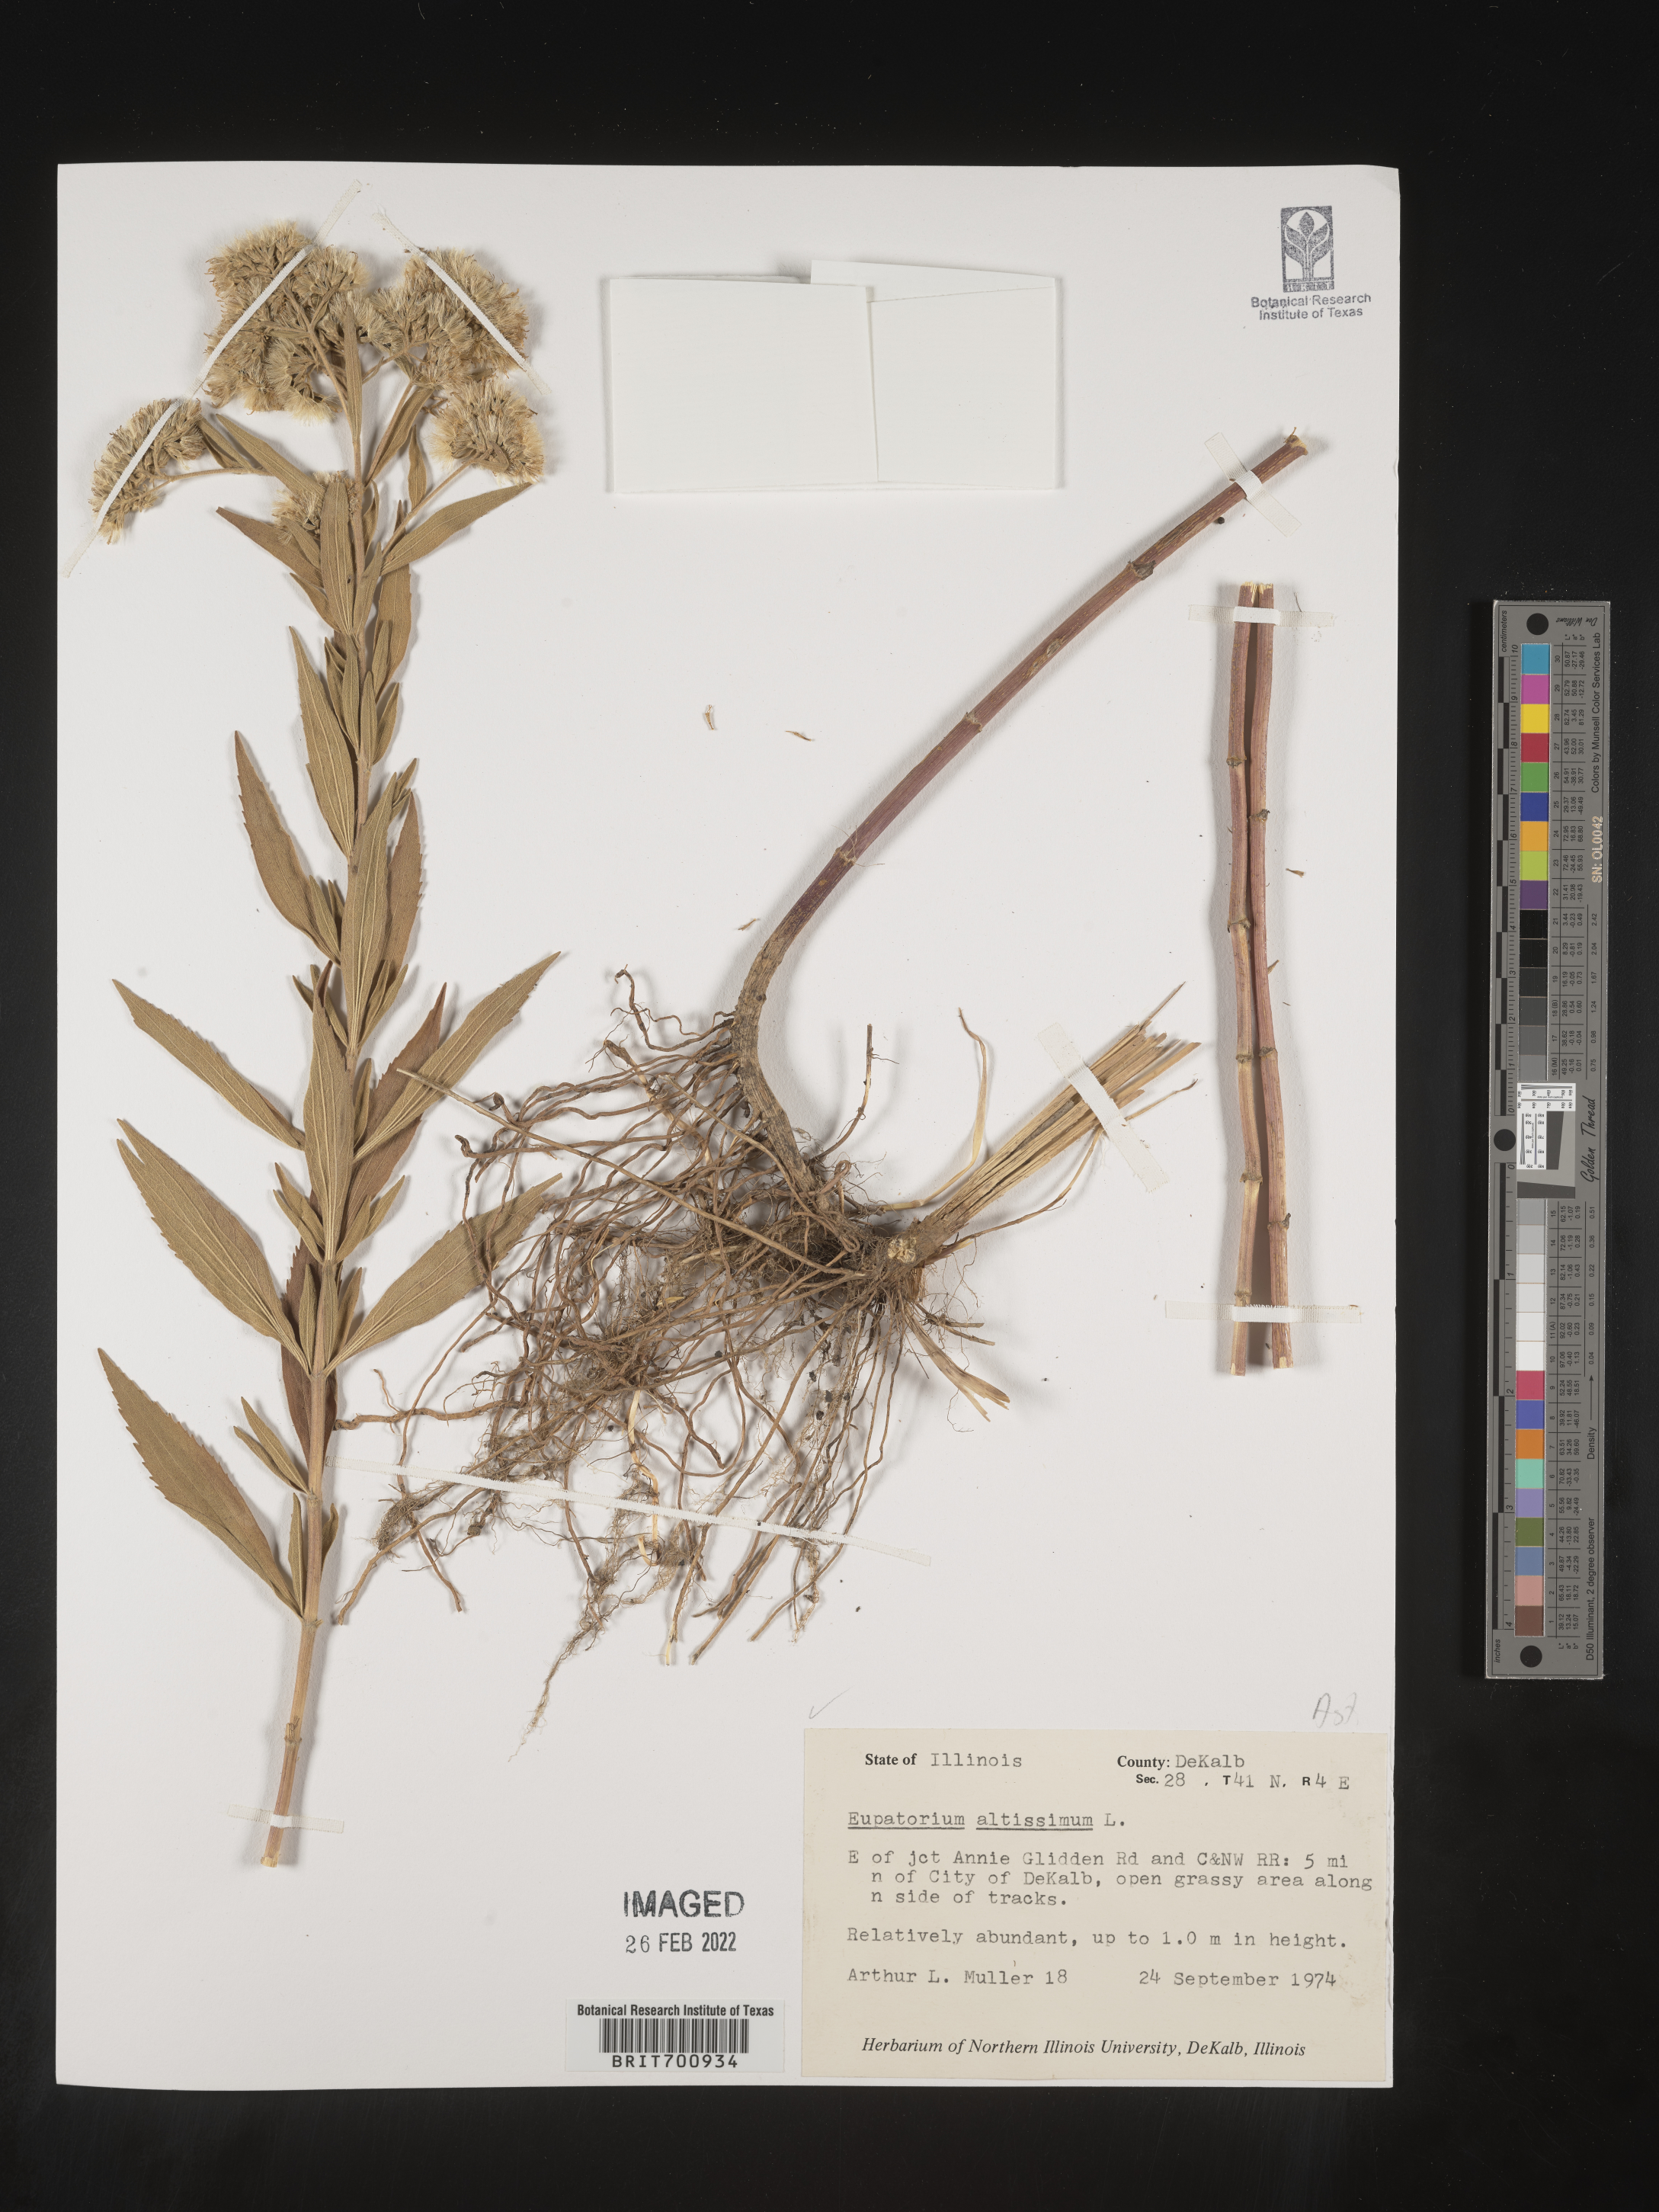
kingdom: Plantae
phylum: Tracheophyta
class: Magnoliopsida
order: Asterales
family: Asteraceae
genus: Eupatorium
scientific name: Eupatorium altissimum
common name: Tall thoroughwort
